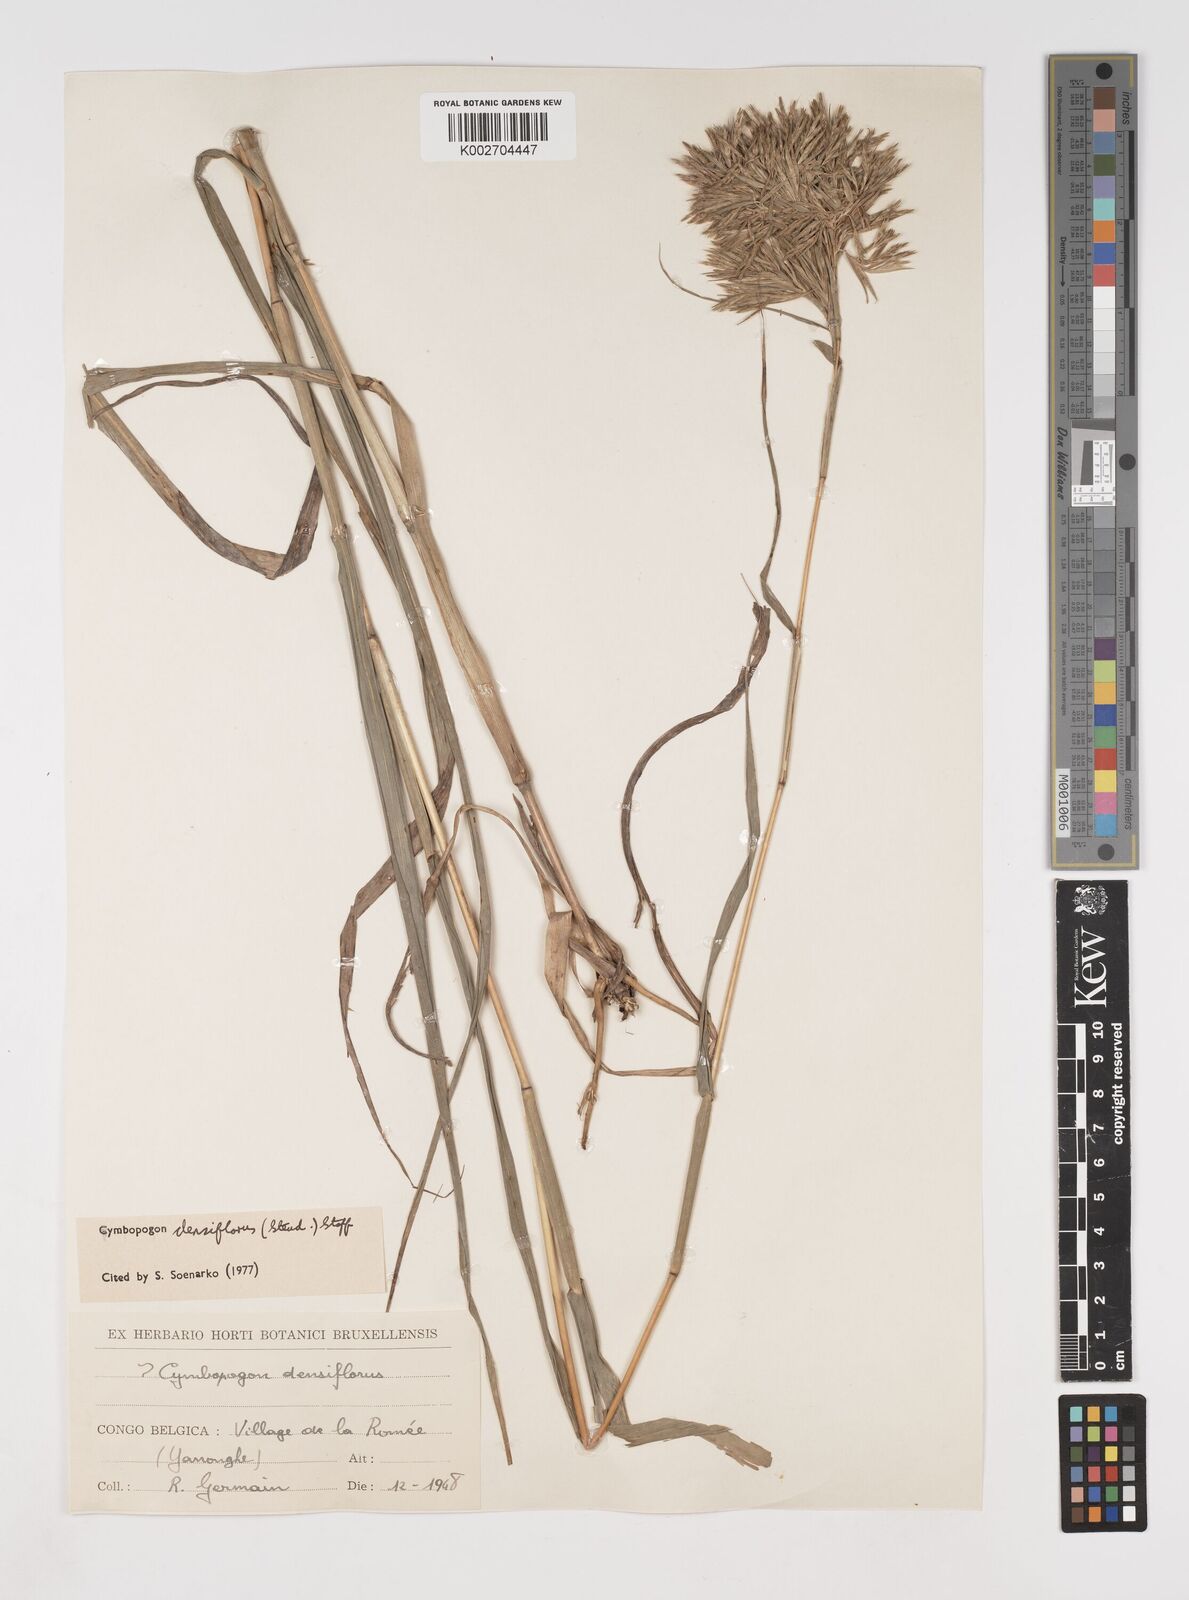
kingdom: Plantae
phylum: Tracheophyta
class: Liliopsida
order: Poales
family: Poaceae
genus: Cymbopogon
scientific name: Cymbopogon densiflorus
